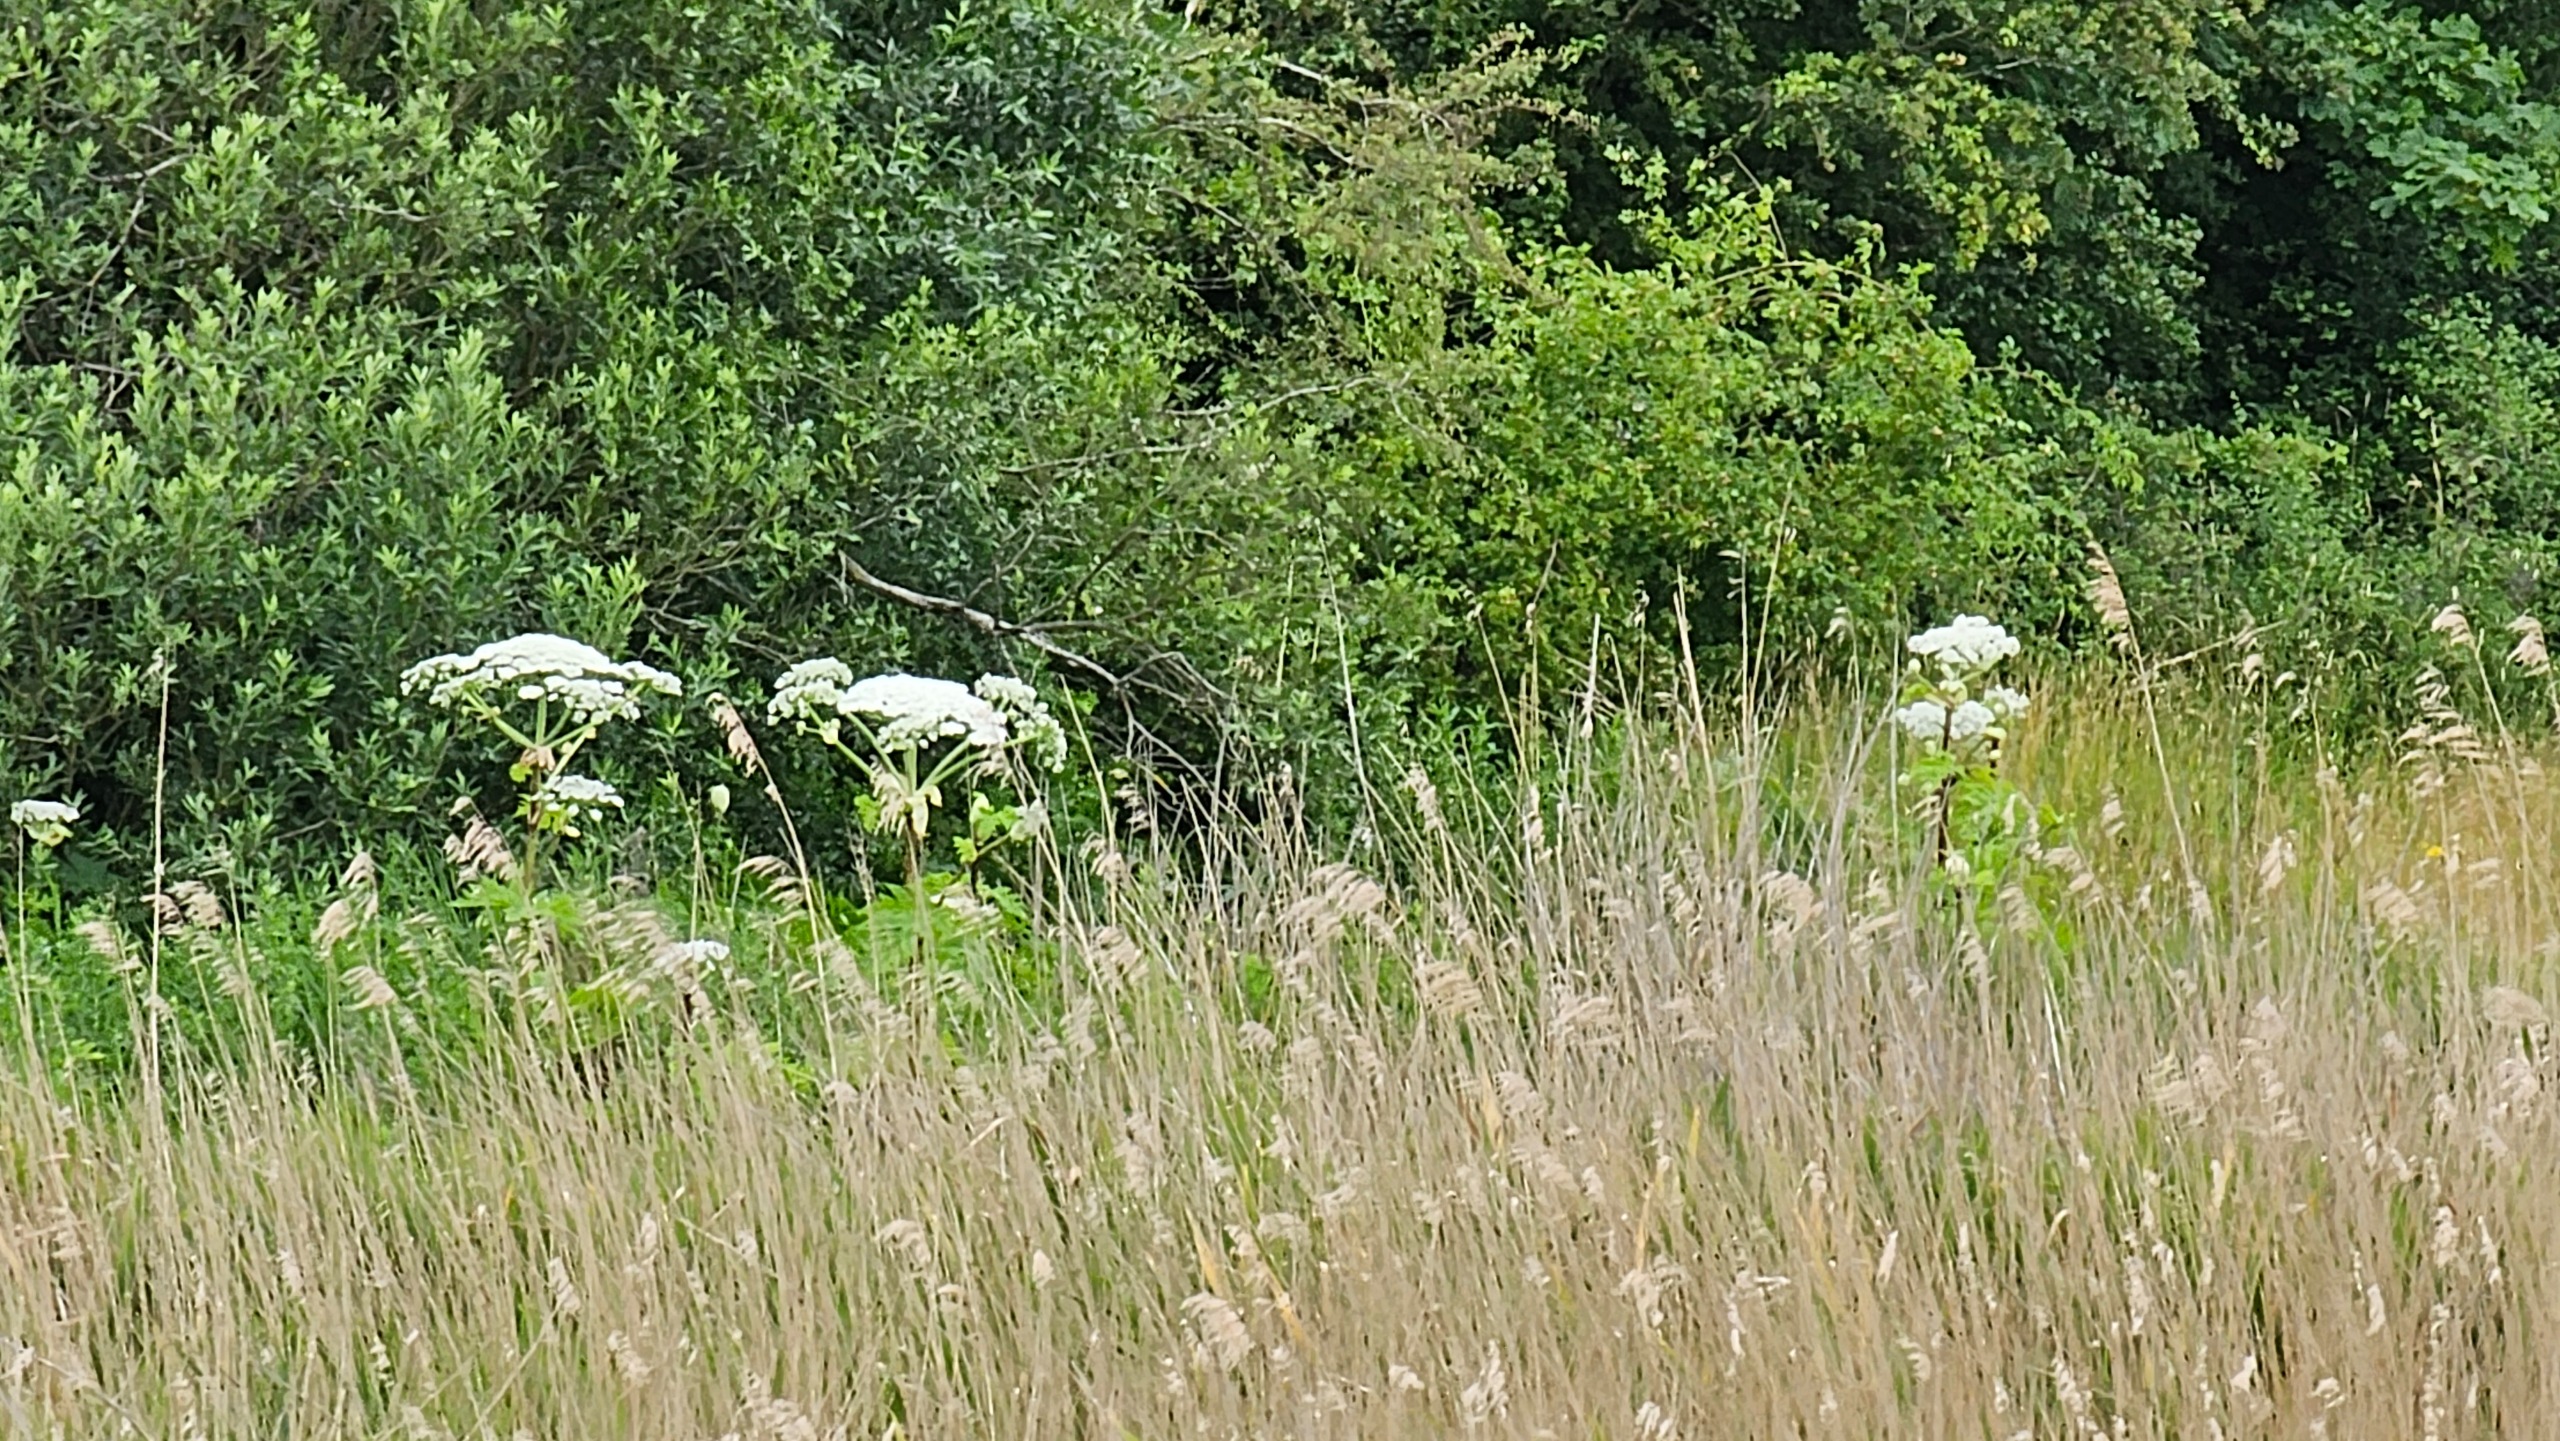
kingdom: Plantae
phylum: Tracheophyta
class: Magnoliopsida
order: Apiales
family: Apiaceae
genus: Heracleum
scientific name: Heracleum mantegazzianum
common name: Kæmpe-bjørneklo
